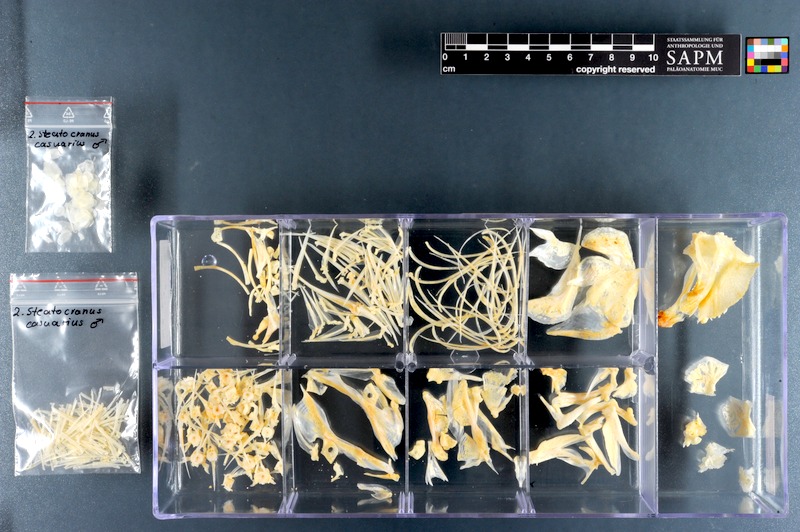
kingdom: Animalia
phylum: Chordata
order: Perciformes
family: Cichlidae
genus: Steatocranus
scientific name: Steatocranus casuarius
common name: Lionhead cichlid
